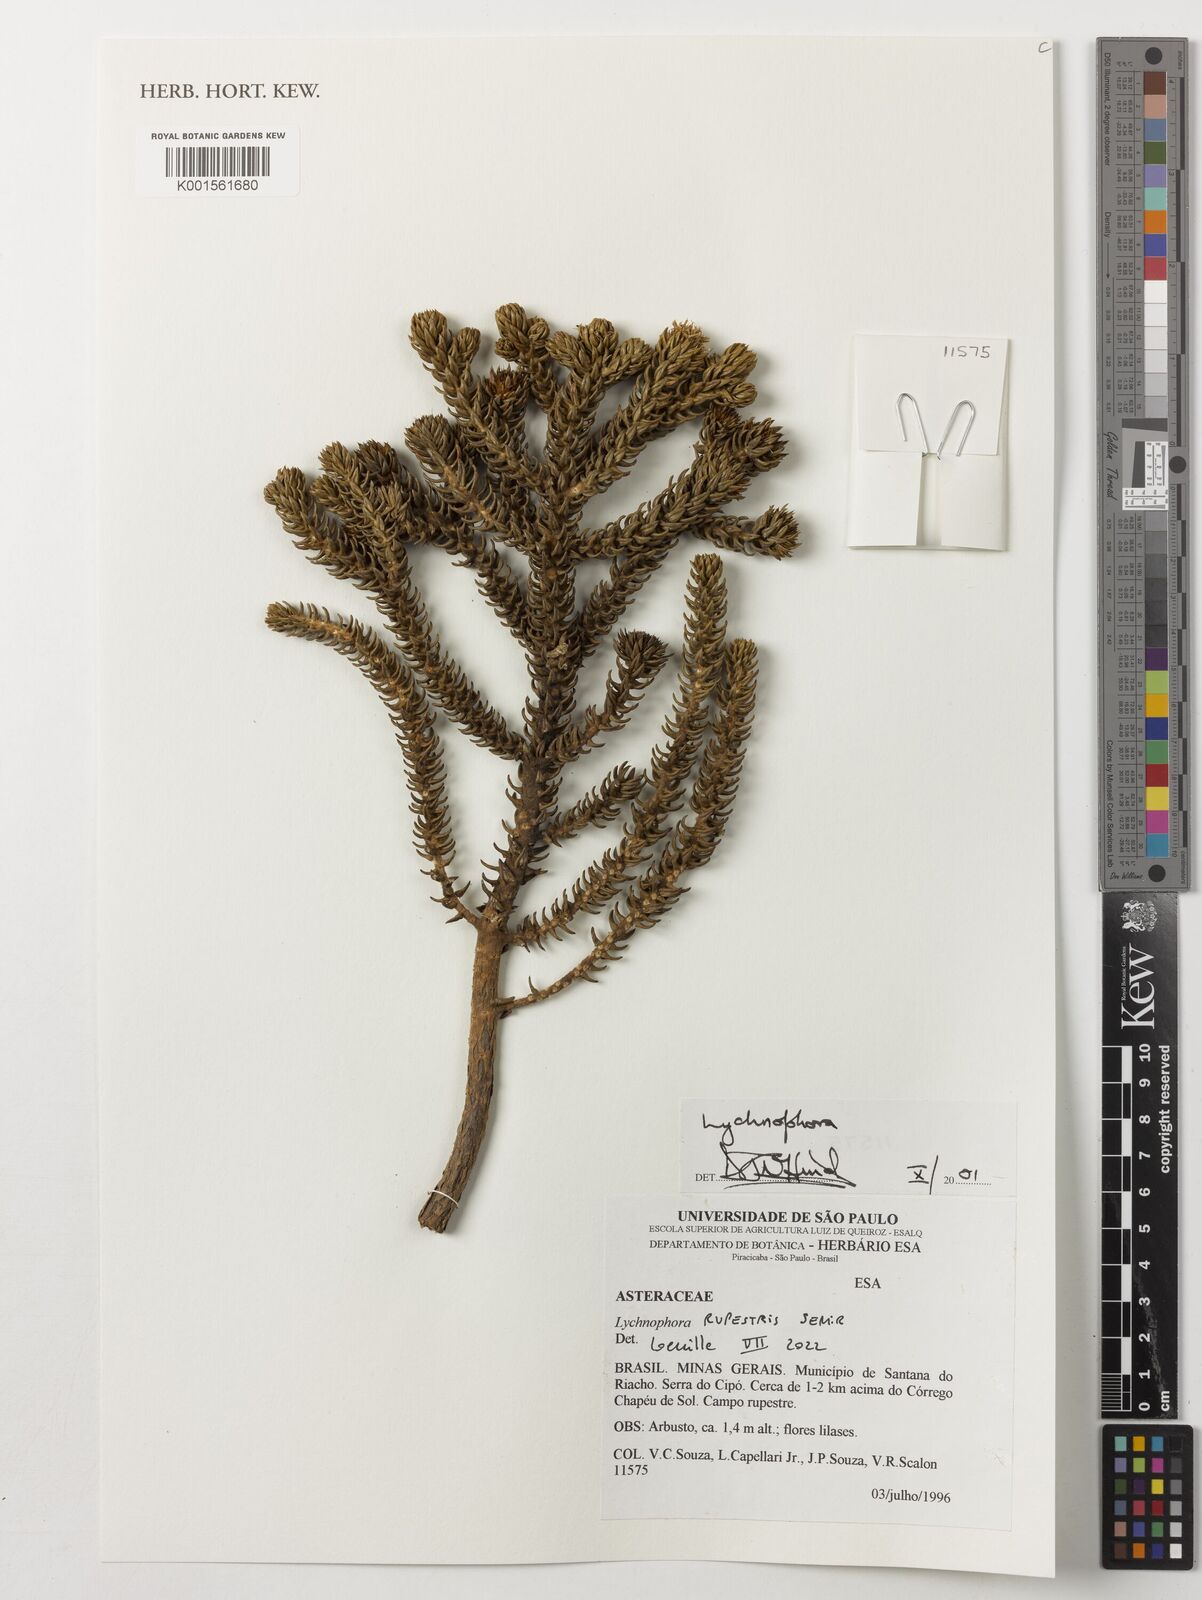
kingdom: Plantae
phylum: Tracheophyta
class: Magnoliopsida
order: Asterales
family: Asteraceae
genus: Lychnophora
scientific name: Lychnophora
